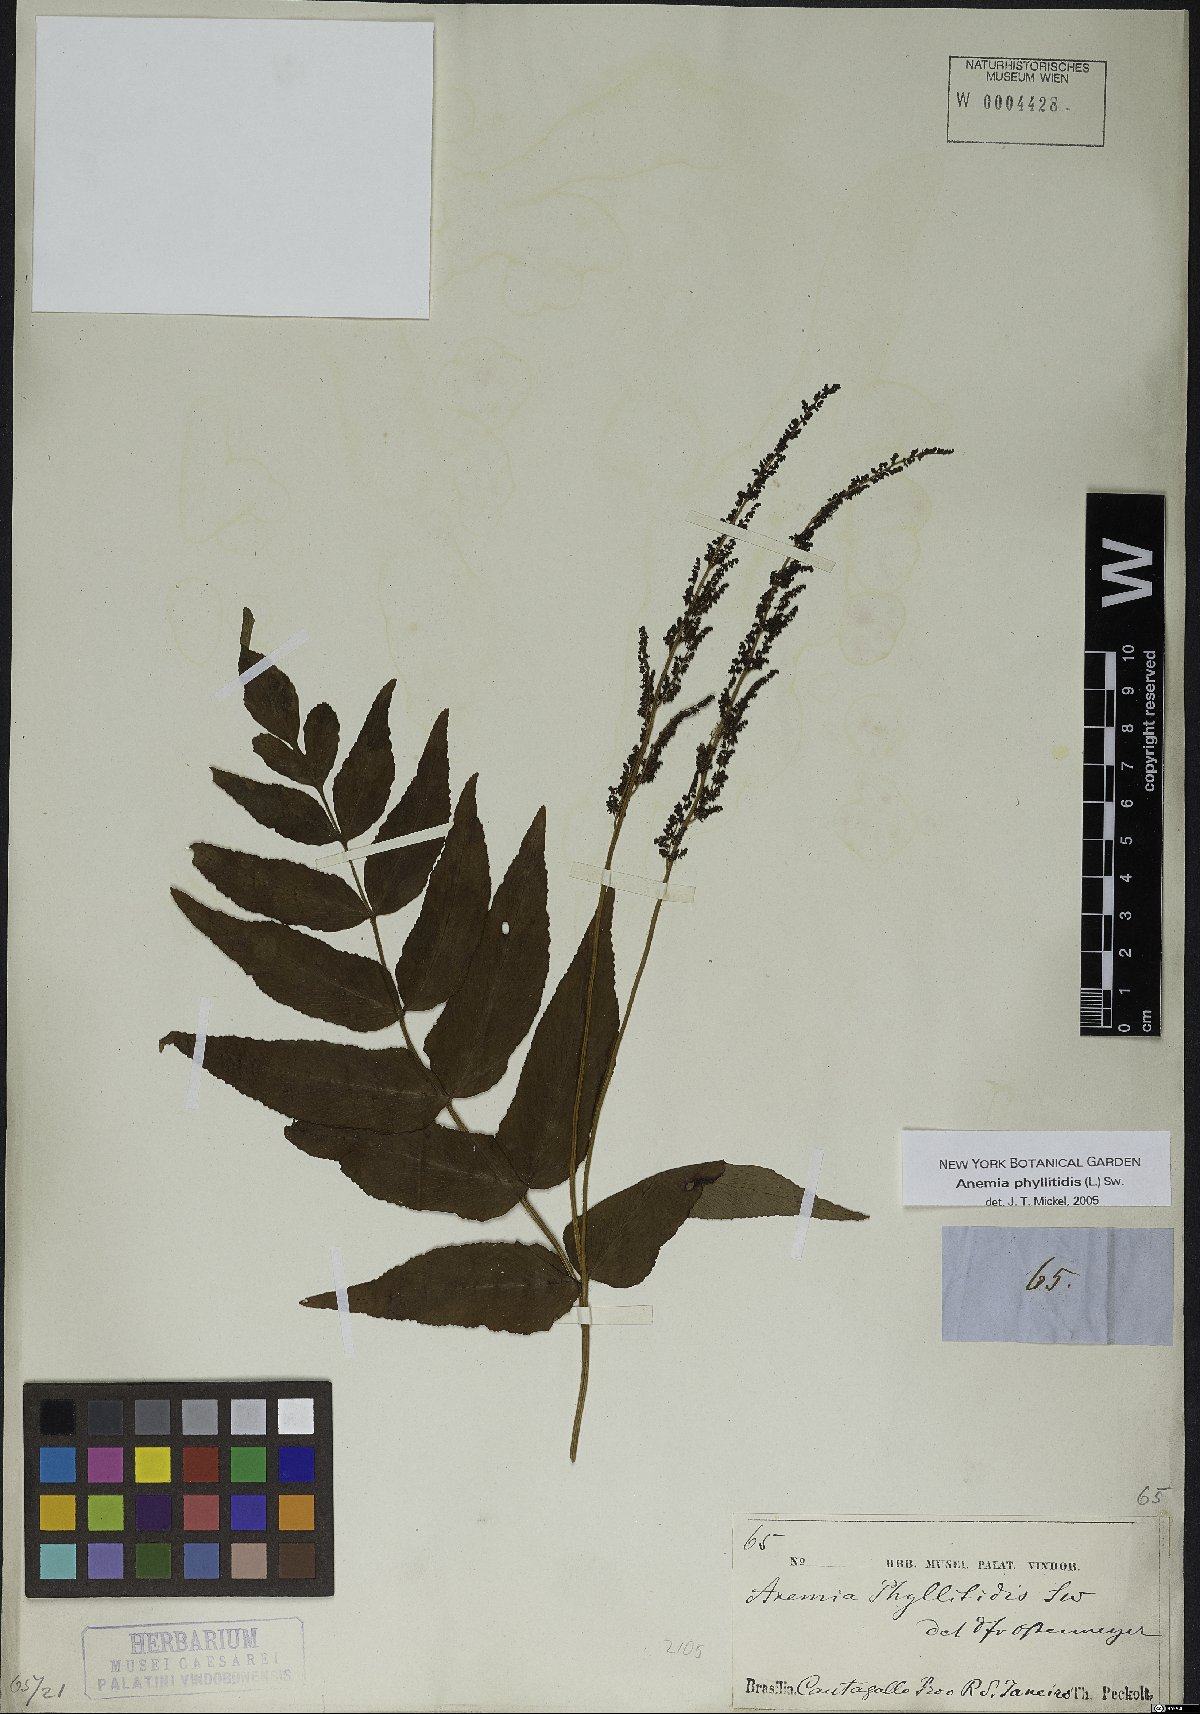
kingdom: Plantae
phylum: Tracheophyta
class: Polypodiopsida
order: Schizaeales
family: Anemiaceae
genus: Anemia
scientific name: Anemia phyllitidis
